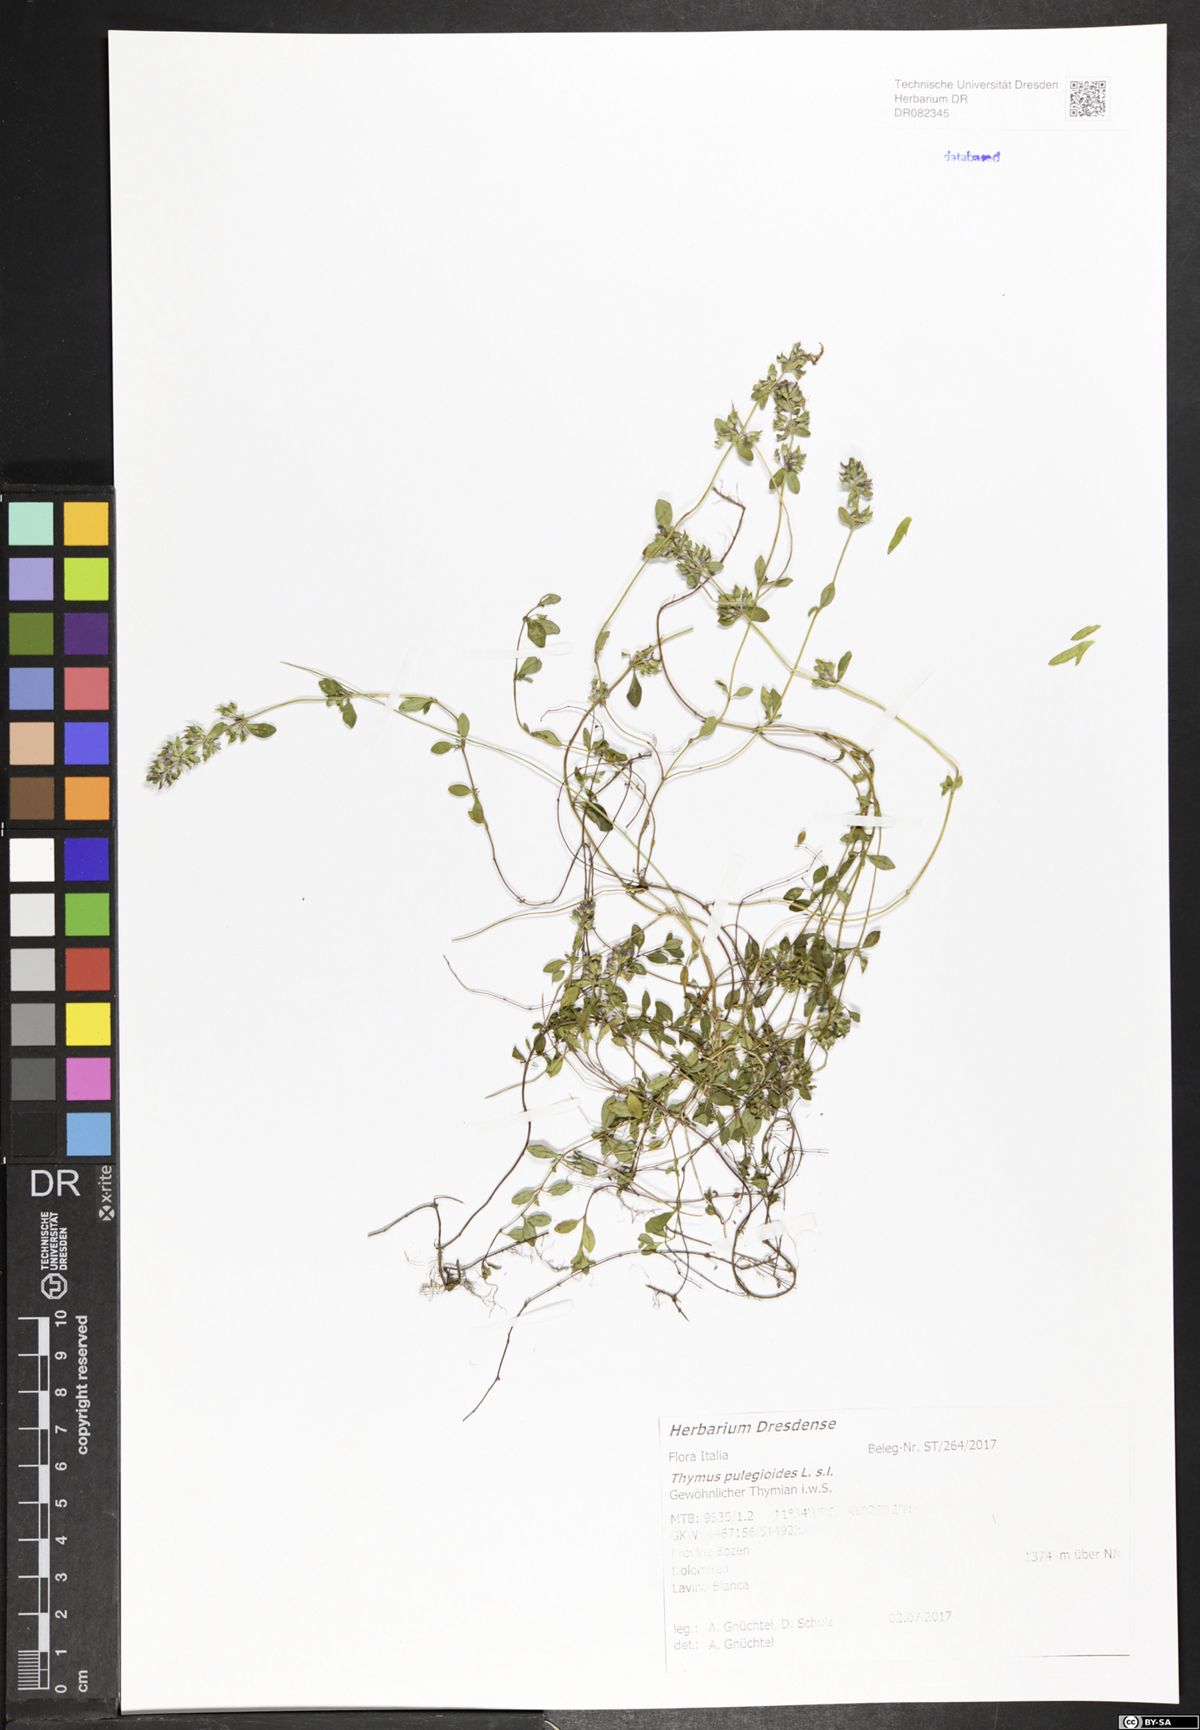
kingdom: Plantae
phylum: Tracheophyta
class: Magnoliopsida
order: Lamiales
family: Lamiaceae
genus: Thymus
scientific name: Thymus pulegioides
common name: Large thyme
